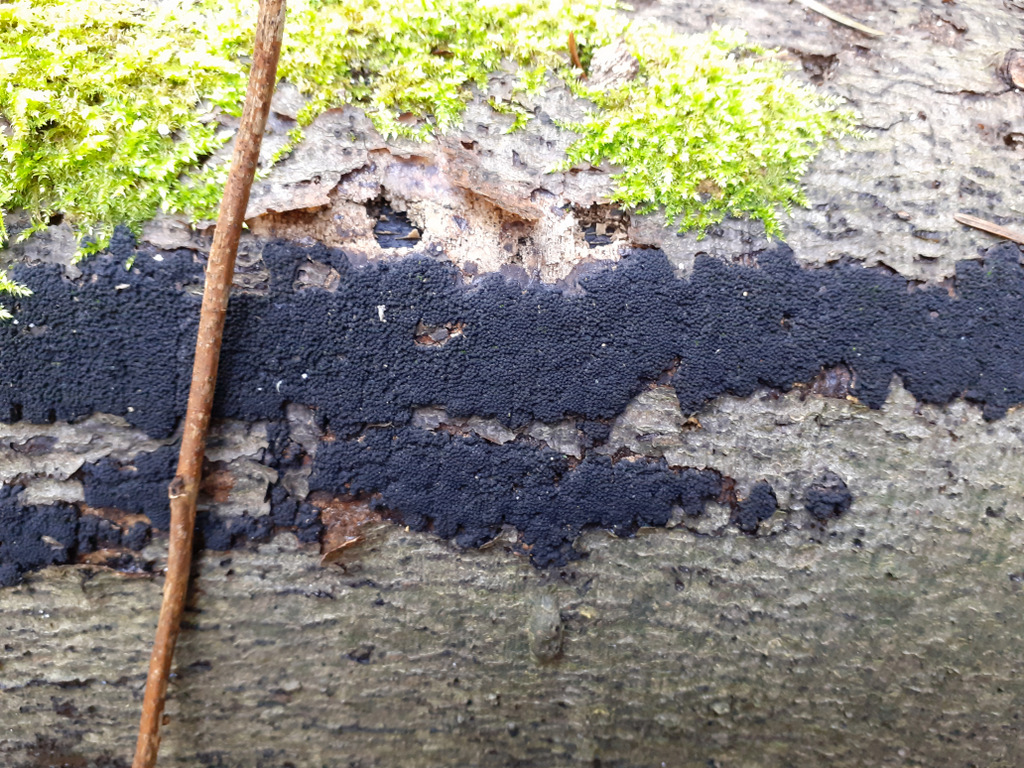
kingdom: Fungi
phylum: Ascomycota
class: Sordariomycetes
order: Xylariales
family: Diatrypaceae
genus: Eutypa
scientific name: Eutypa spinosa
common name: grov kulskorpe
